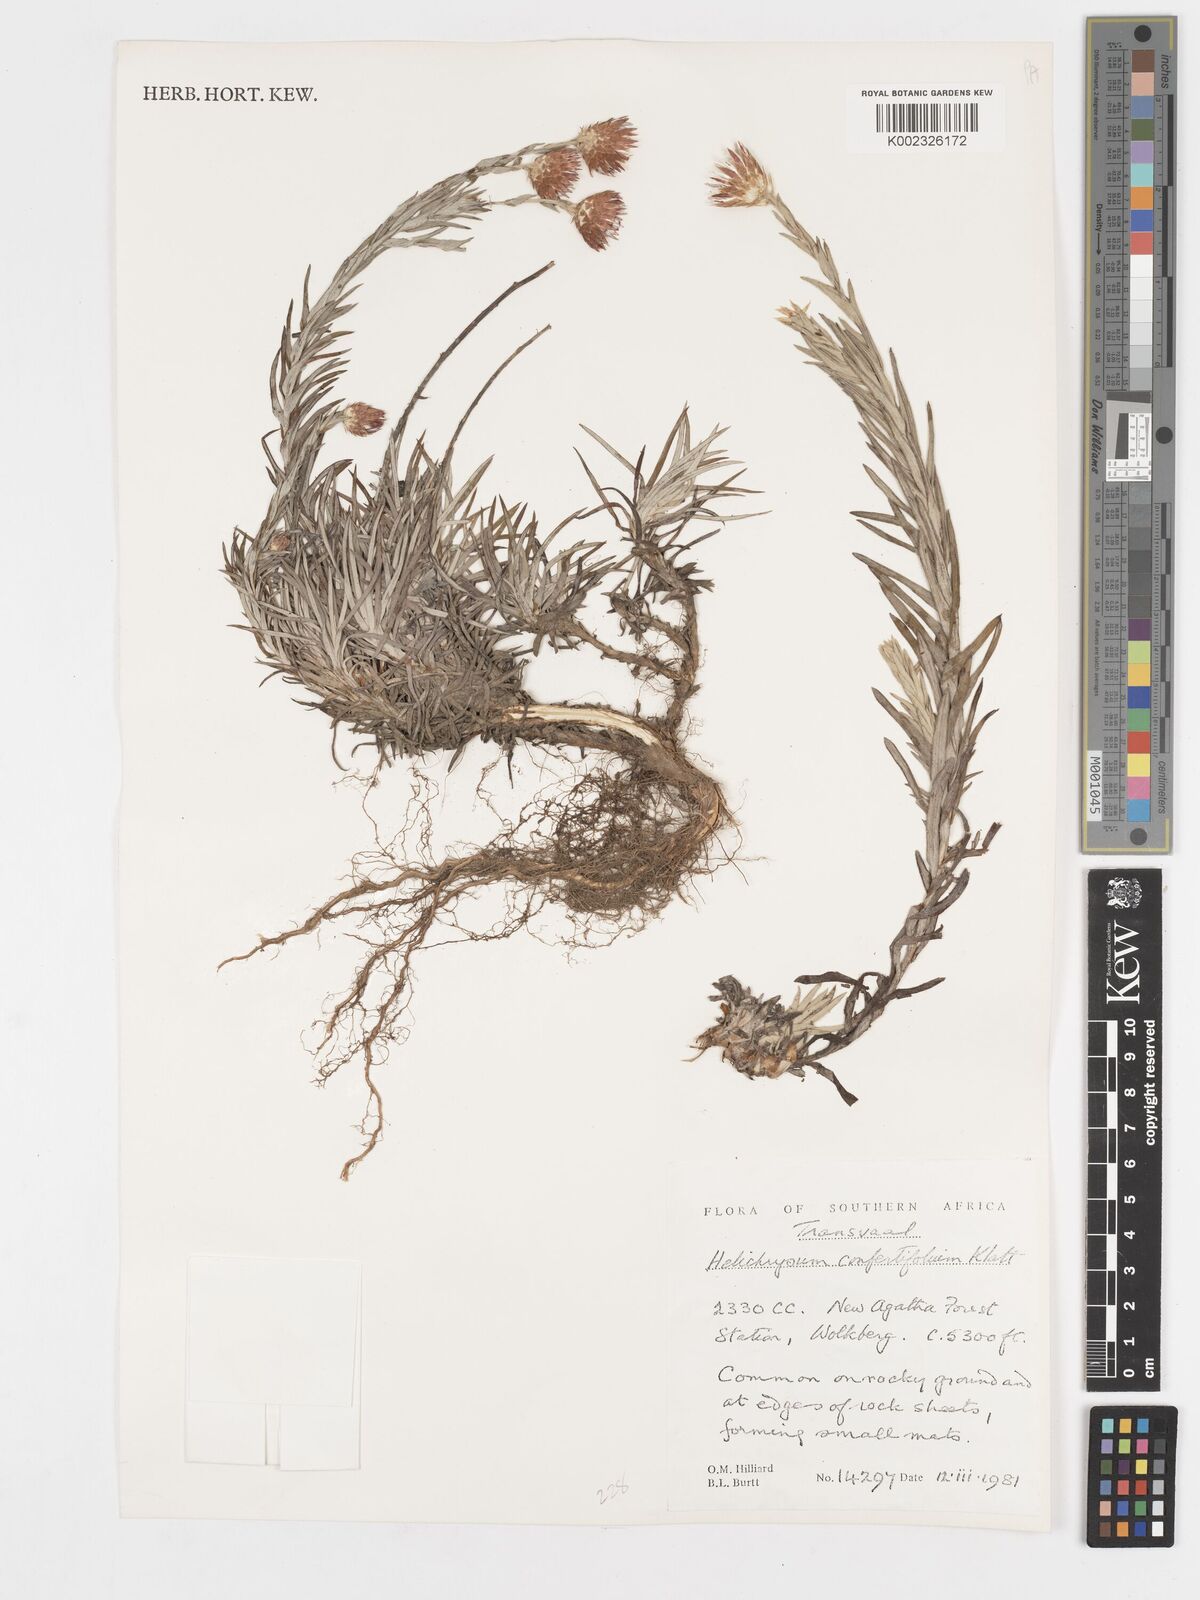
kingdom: Plantae
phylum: Tracheophyta
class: Magnoliopsida
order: Asterales
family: Asteraceae
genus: Helichrysum
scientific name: Helichrysum confertifolium
